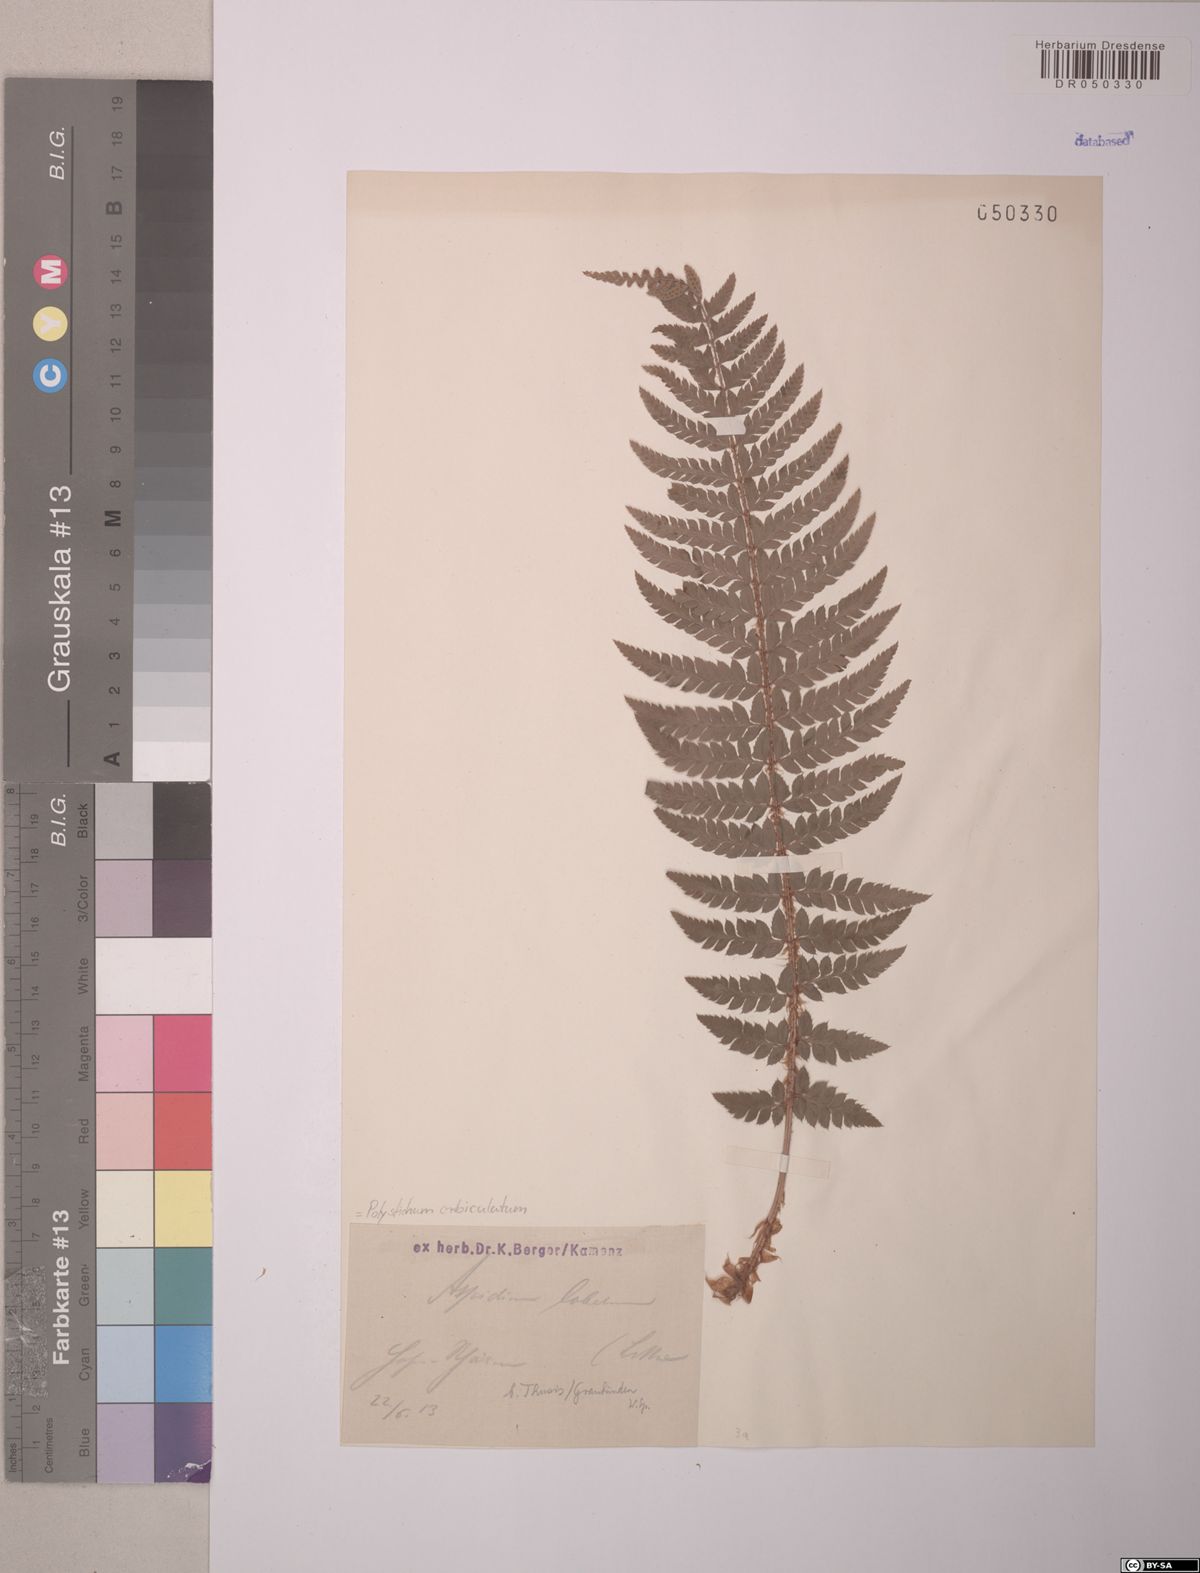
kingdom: Plantae
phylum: Tracheophyta
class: Polypodiopsida
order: Polypodiales
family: Dryopteridaceae
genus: Polystichum
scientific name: Polystichum aculeatum
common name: Hard shield-fern
